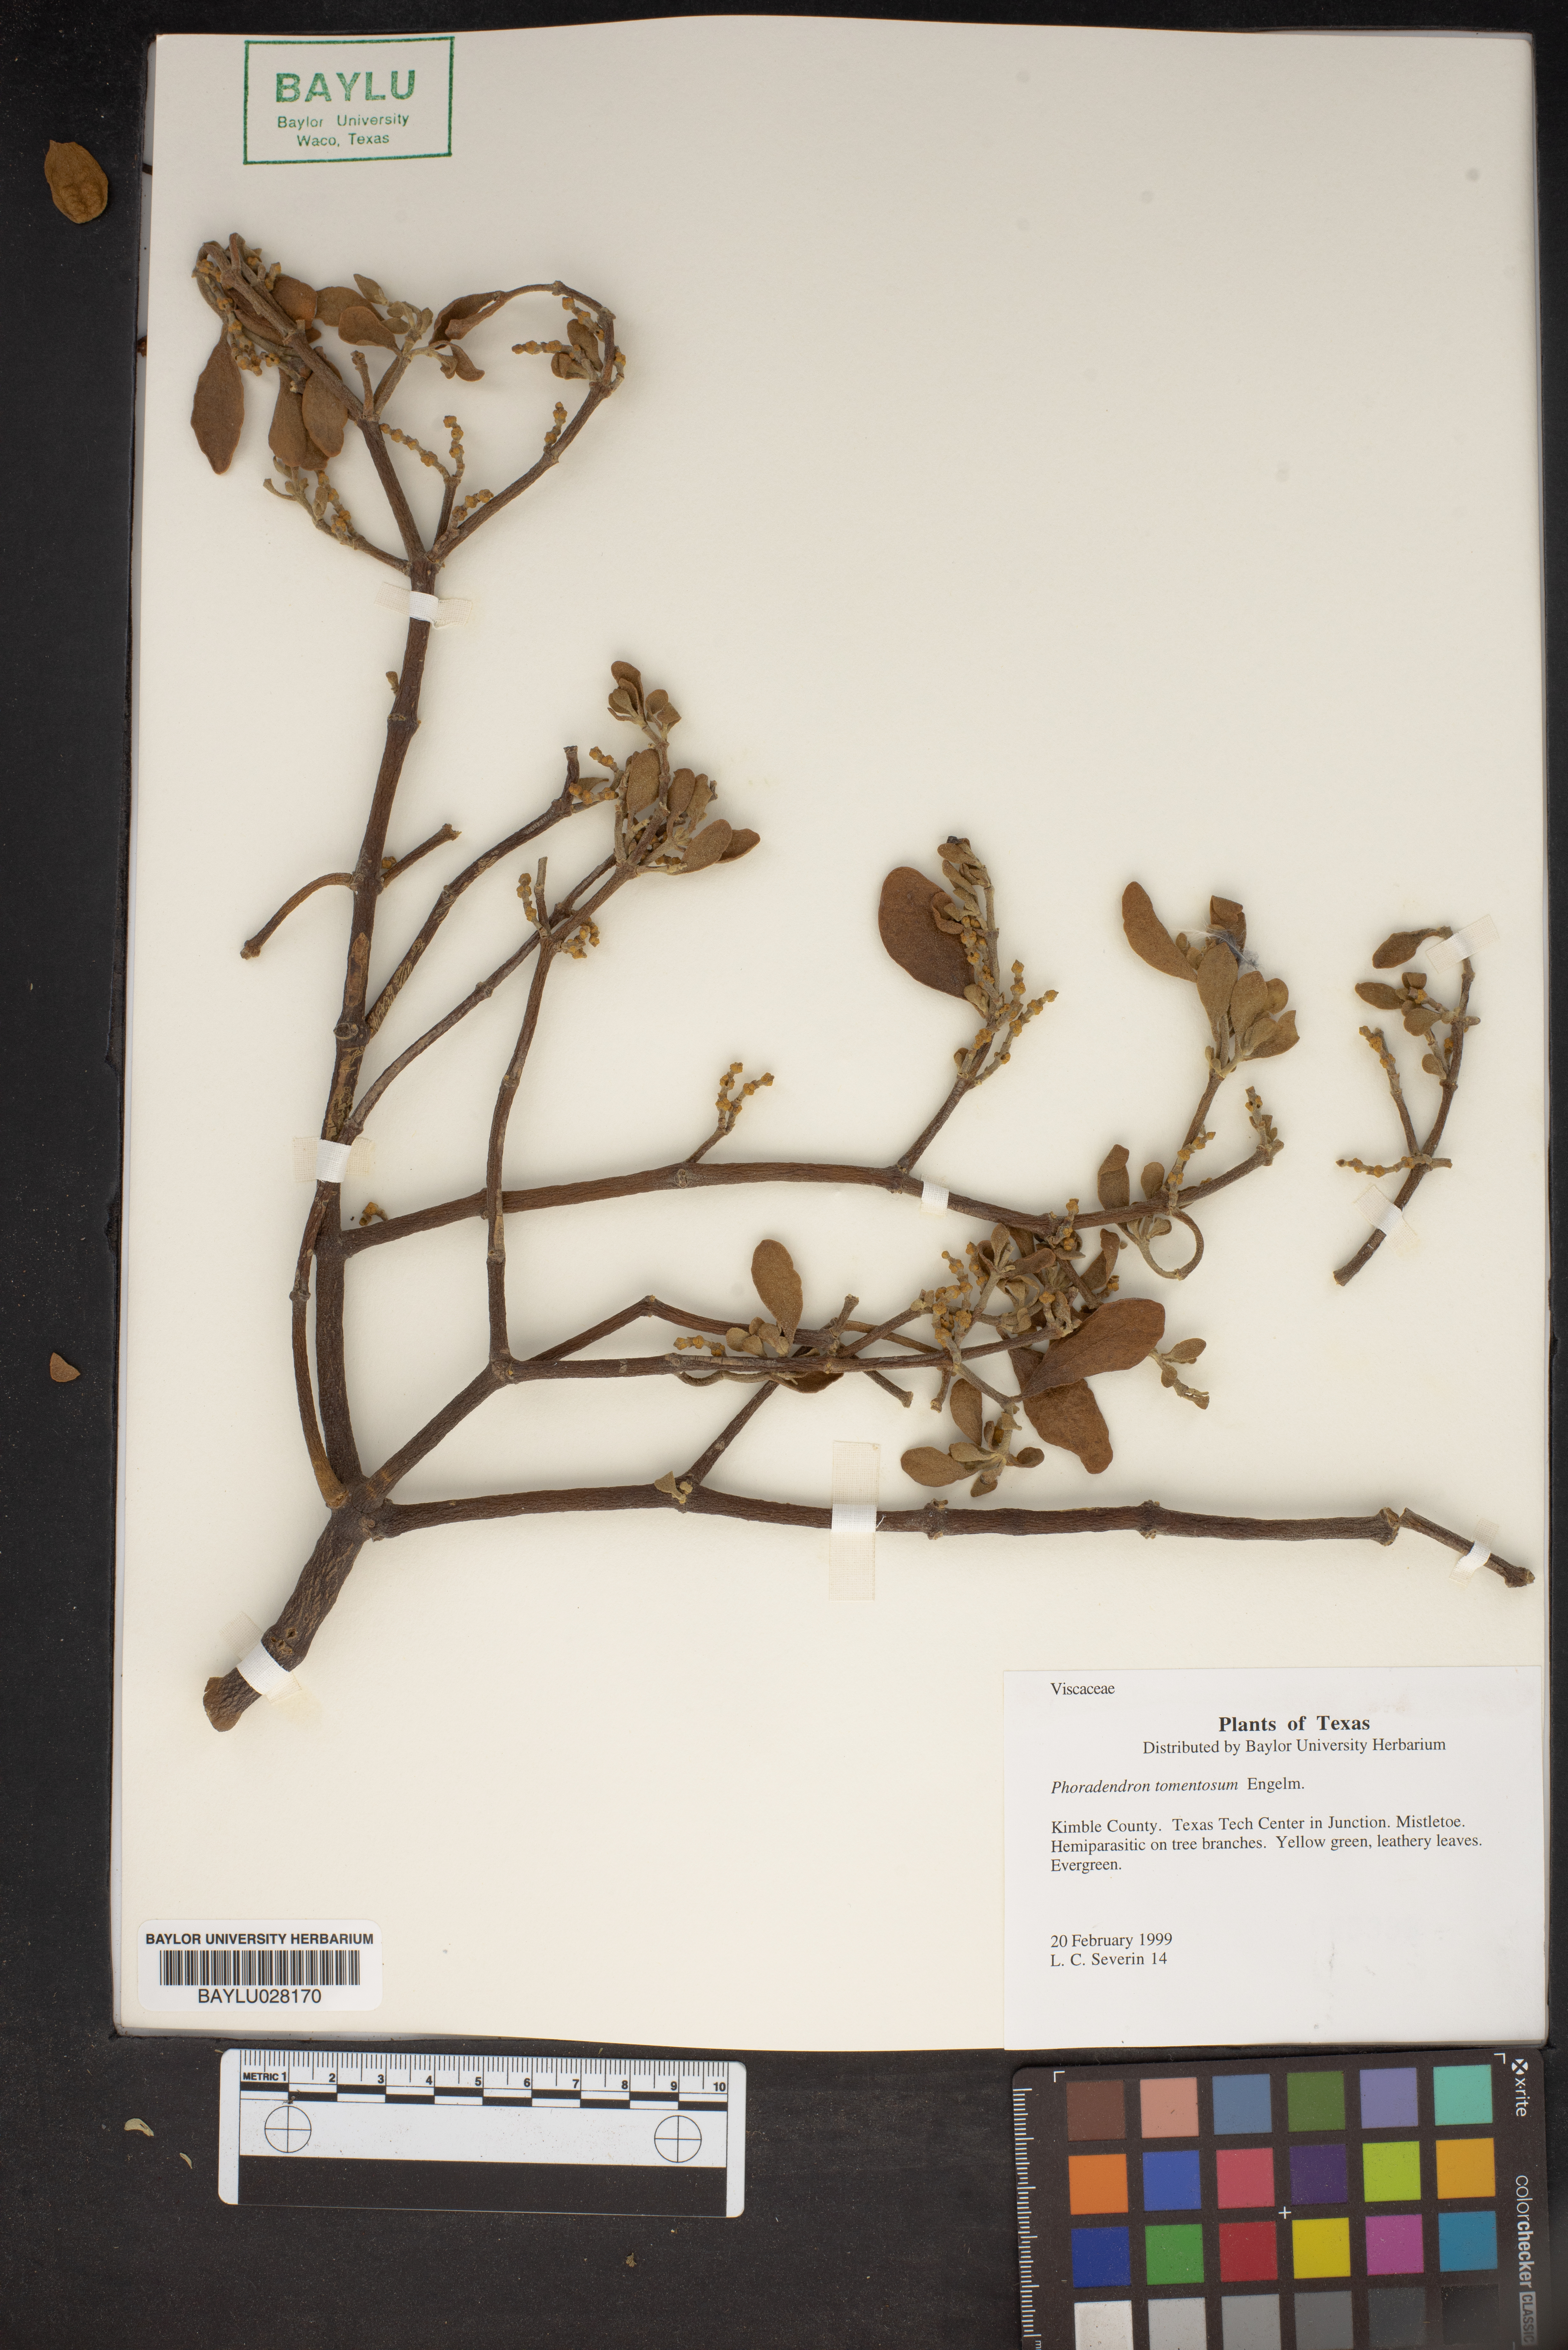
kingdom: Plantae
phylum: Tracheophyta
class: Magnoliopsida
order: Santalales
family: Viscaceae
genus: Phoradendron
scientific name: Phoradendron leucarpum
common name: Pacific mistletoe
